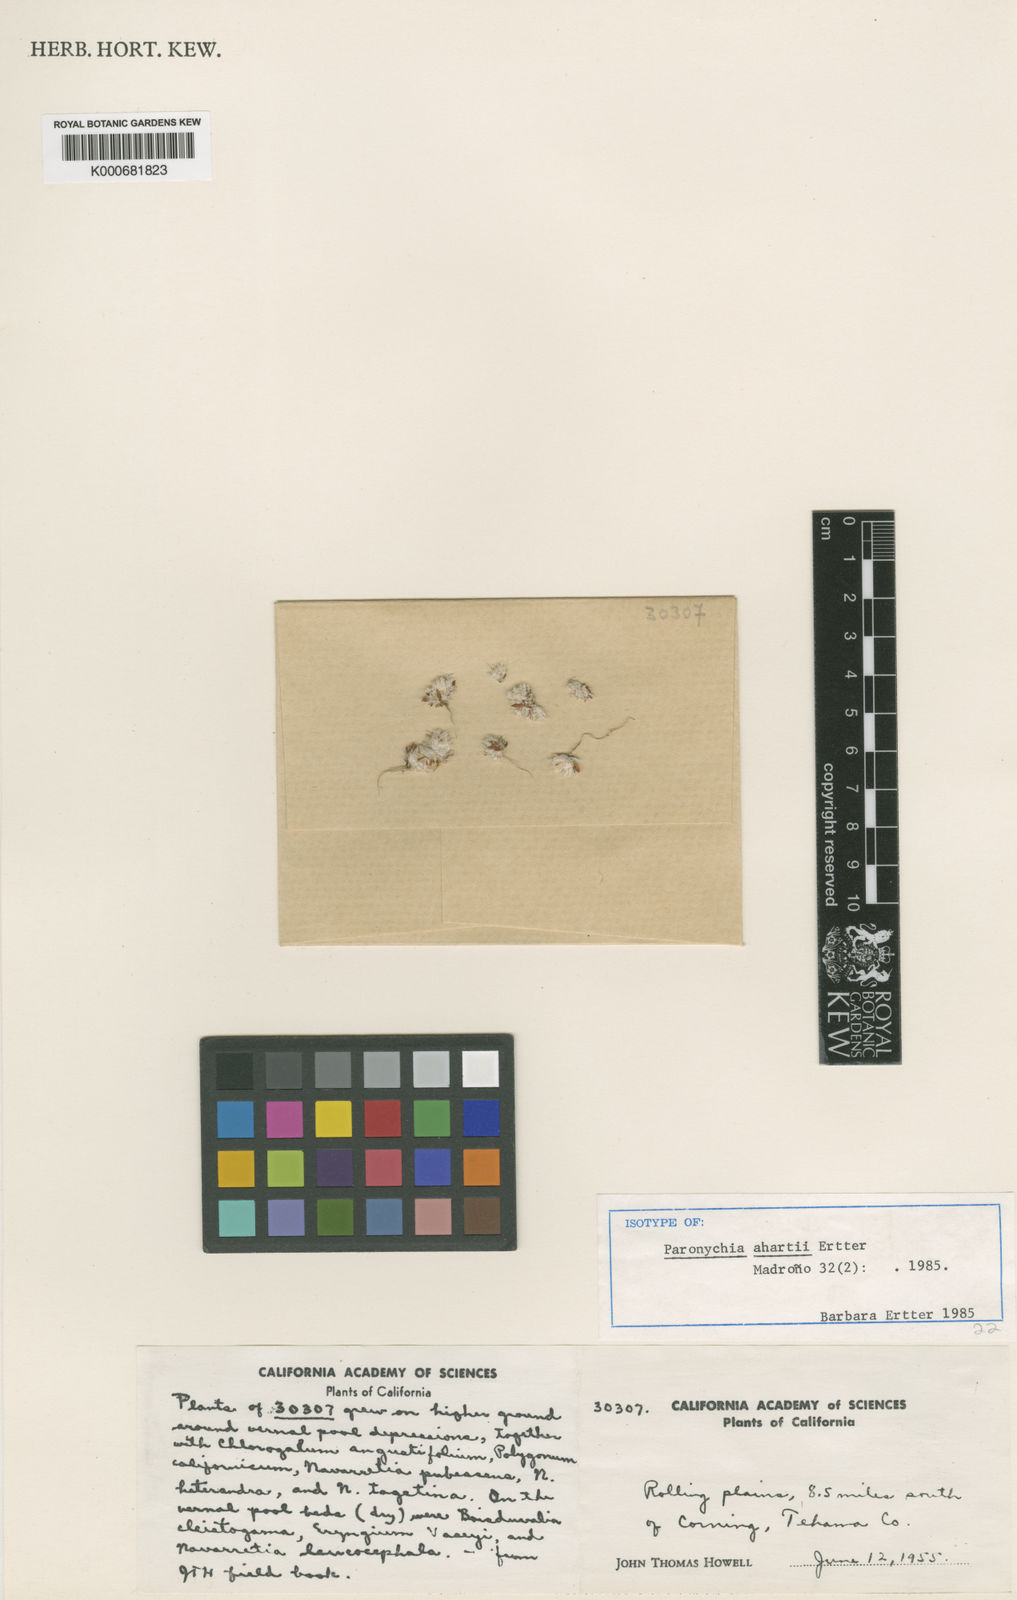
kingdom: Plantae
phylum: Tracheophyta
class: Magnoliopsida
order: Caryophyllales
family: Caryophyllaceae
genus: Paronychia
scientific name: Paronychia ahartii
